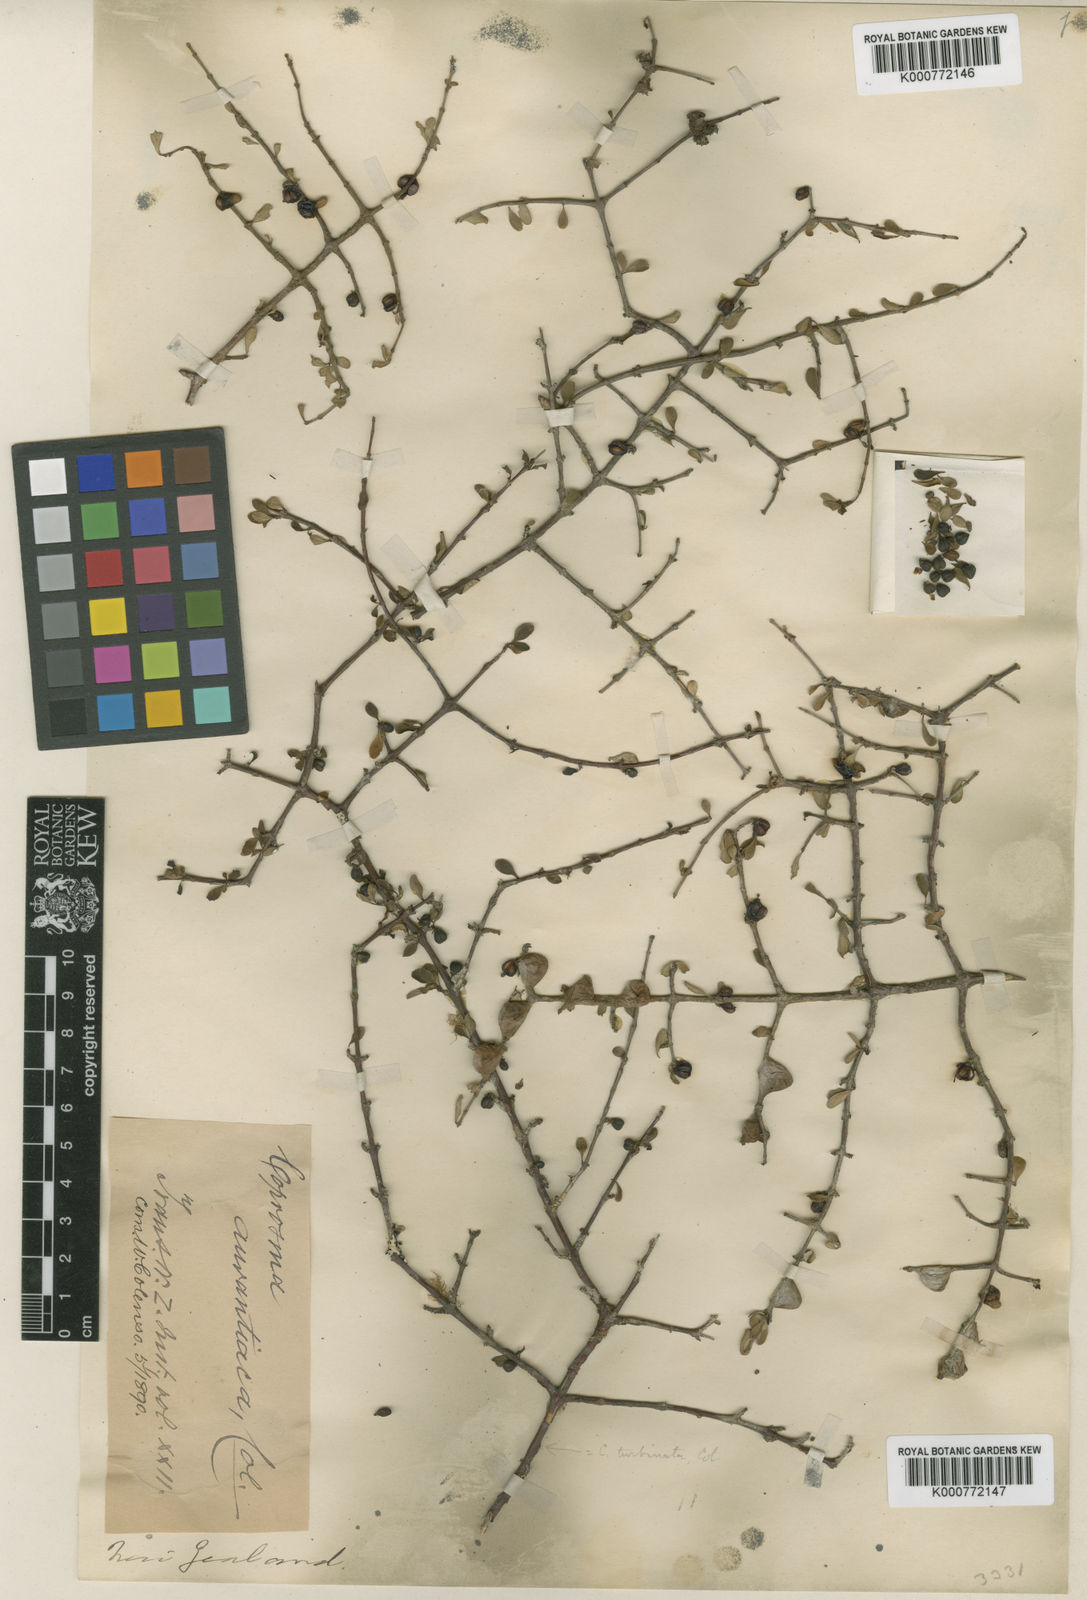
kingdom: Plantae
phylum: Tracheophyta
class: Magnoliopsida
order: Gentianales
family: Rubiaceae
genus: Coprosma
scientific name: Coprosma rigida
